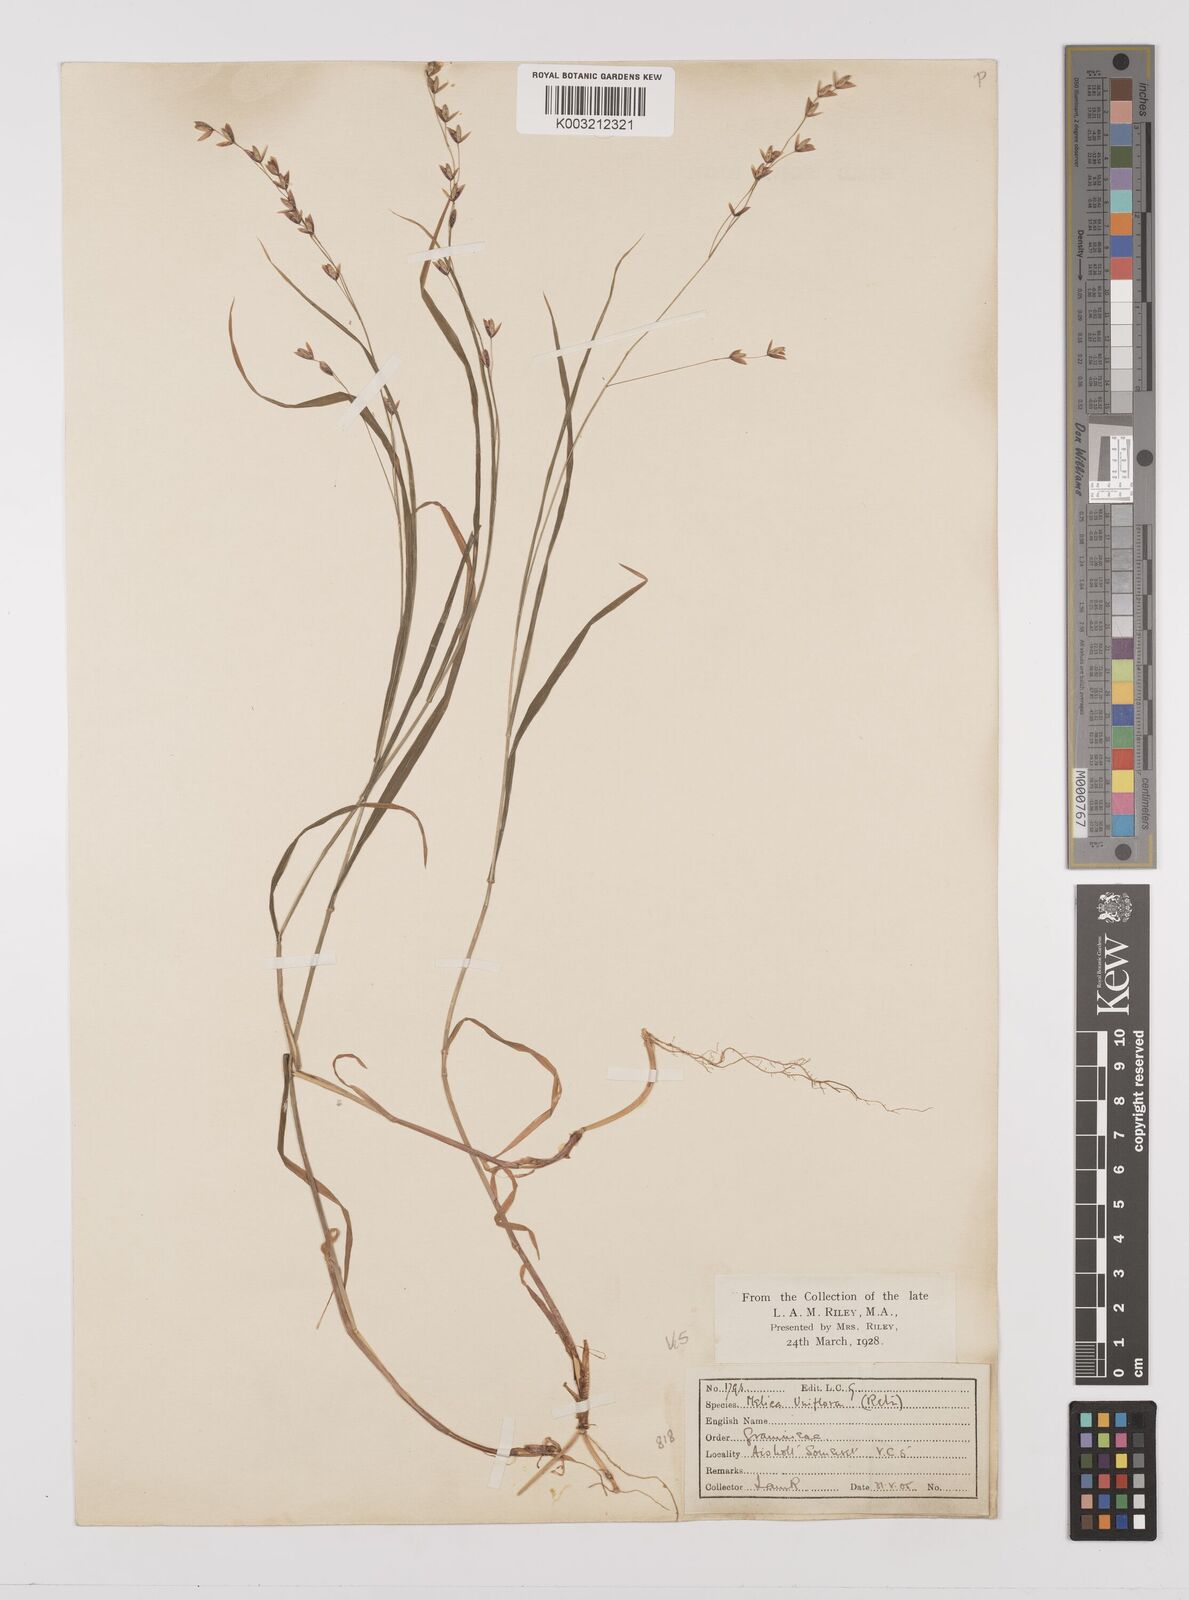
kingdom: Plantae
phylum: Tracheophyta
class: Liliopsida
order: Poales
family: Poaceae
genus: Melica
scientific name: Melica uniflora
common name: Wood melick
